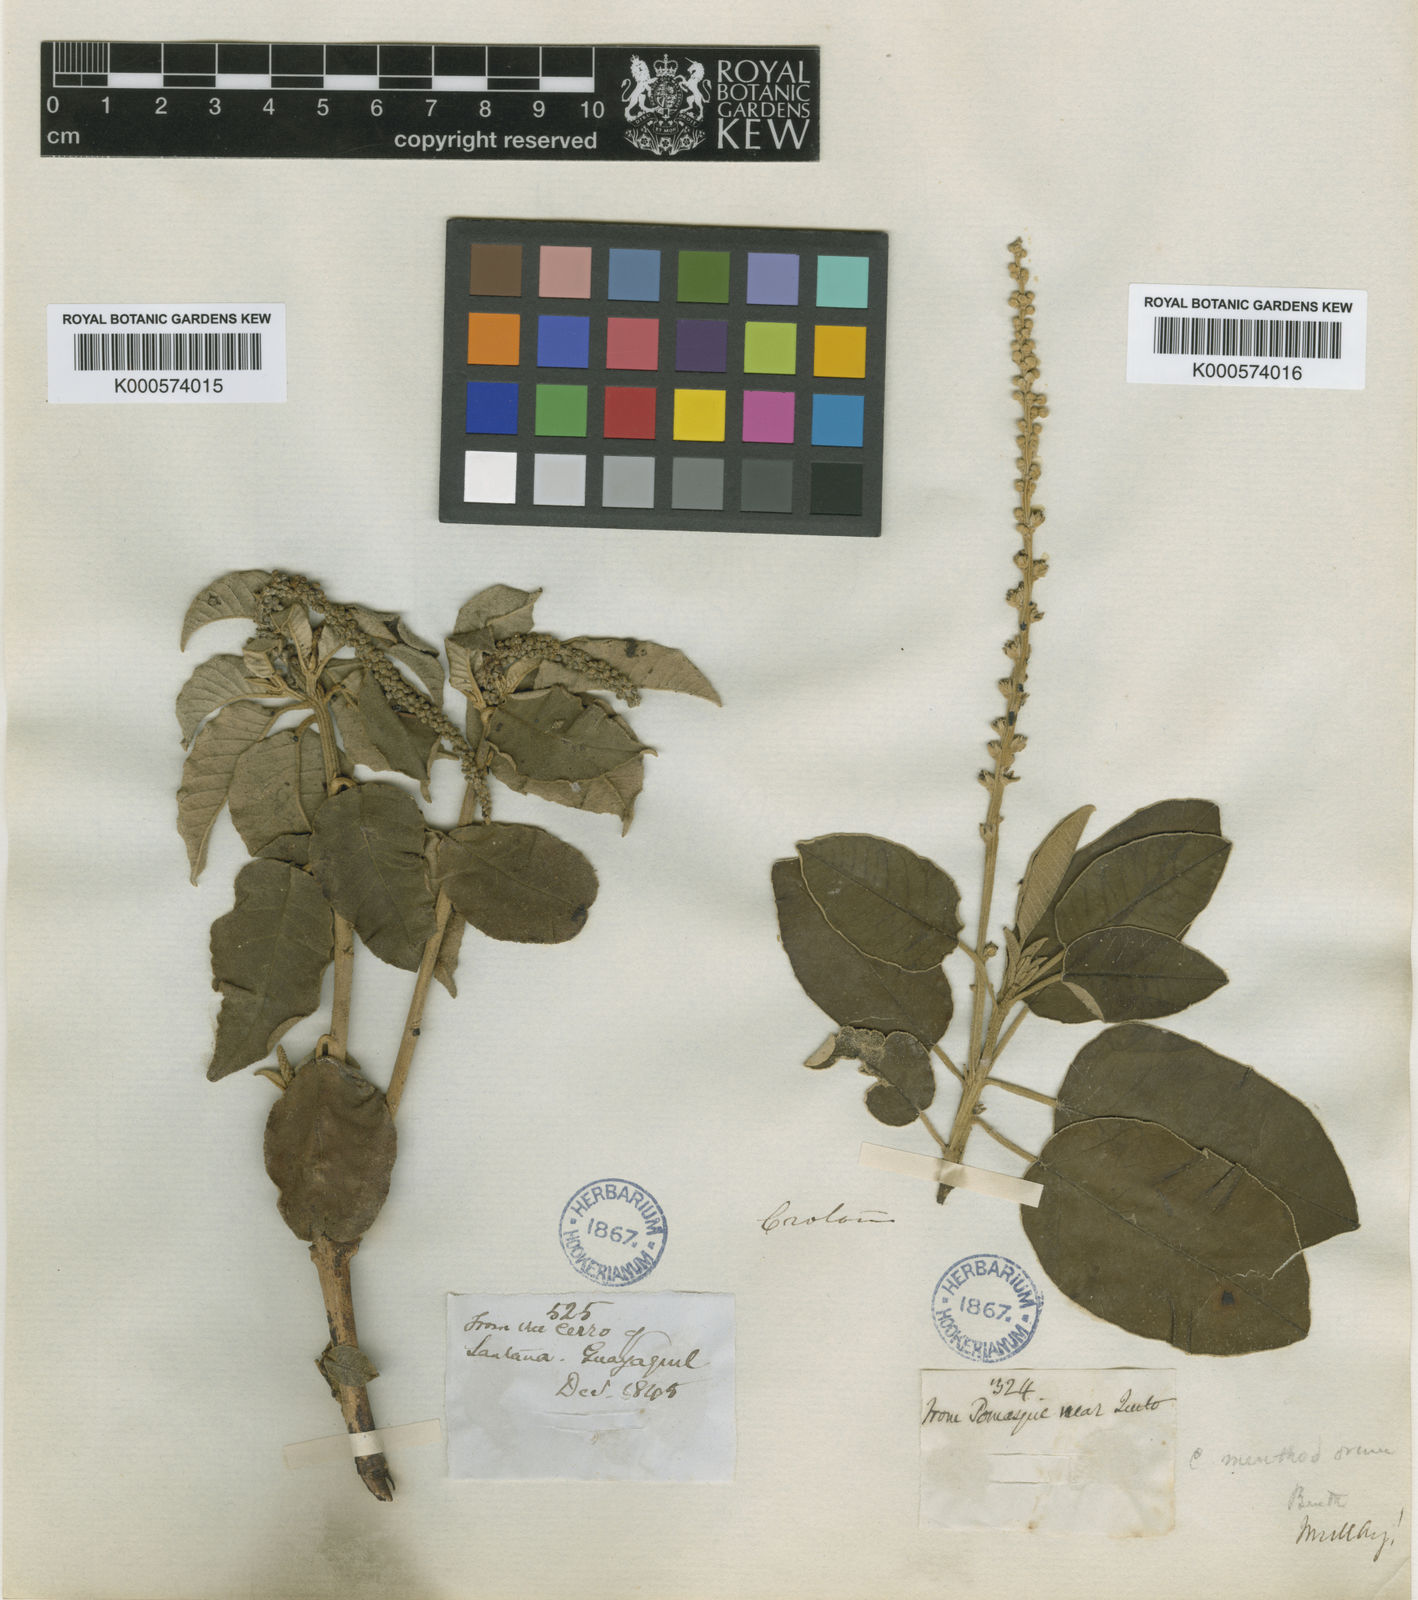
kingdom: Plantae
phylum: Tracheophyta
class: Magnoliopsida
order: Malpighiales
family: Euphorbiaceae
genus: Croton
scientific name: Croton menthodorus
